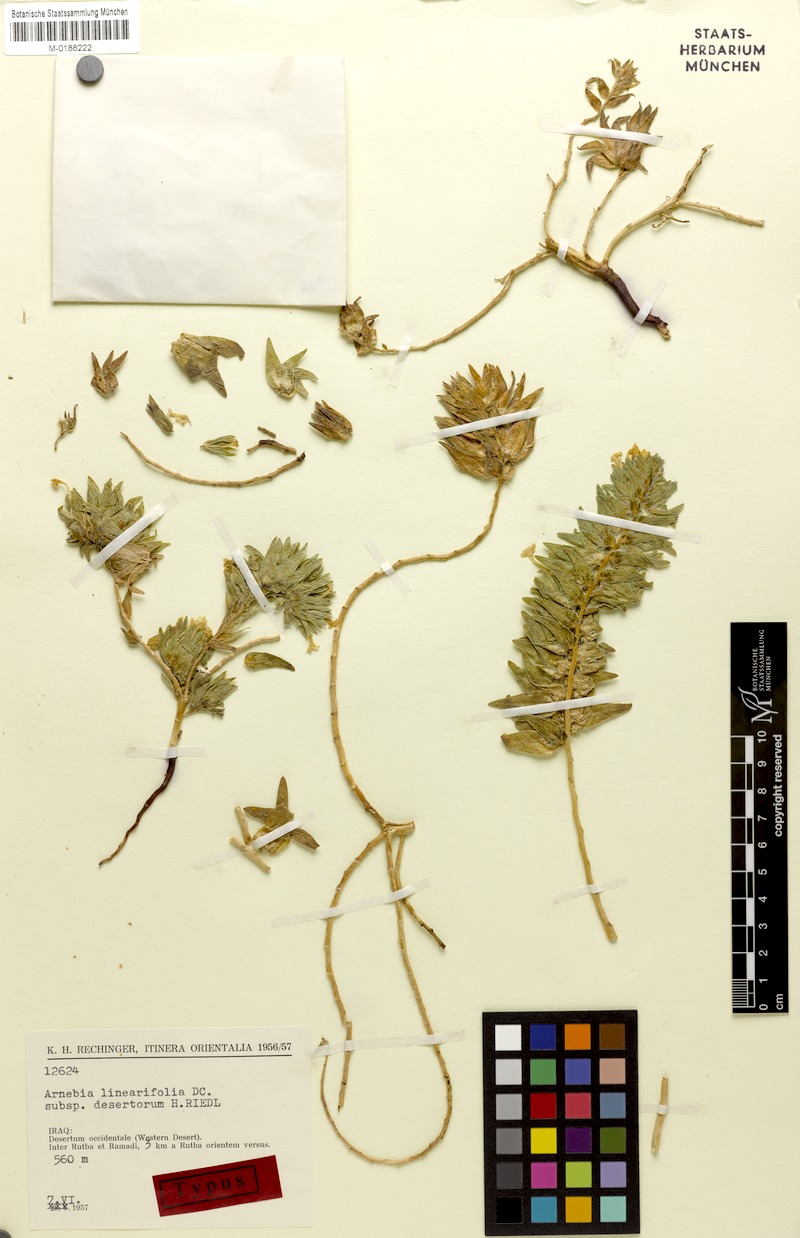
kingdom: Plantae
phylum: Tracheophyta
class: Magnoliopsida
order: Boraginales
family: Boraginaceae
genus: Arnebia
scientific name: Arnebia linearifolia
